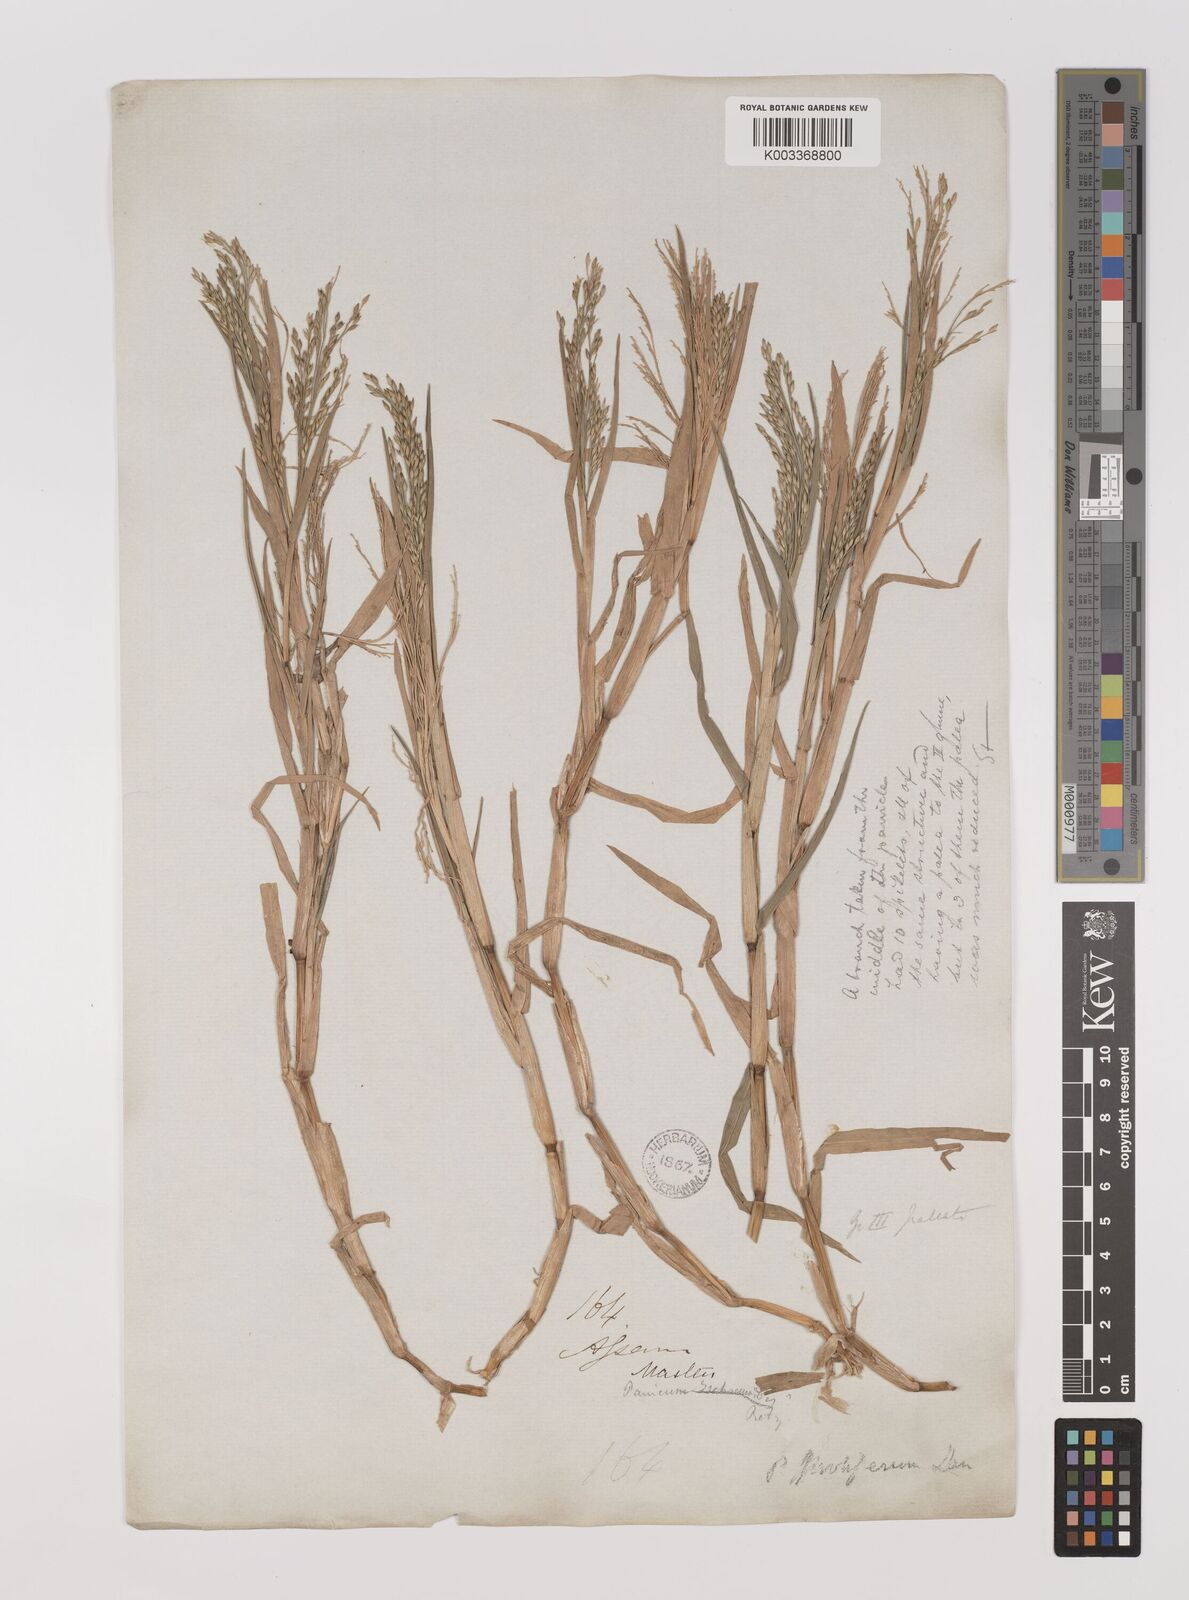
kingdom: Plantae
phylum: Tracheophyta
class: Liliopsida
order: Poales
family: Poaceae
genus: Louisiella
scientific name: Louisiella paludosa
